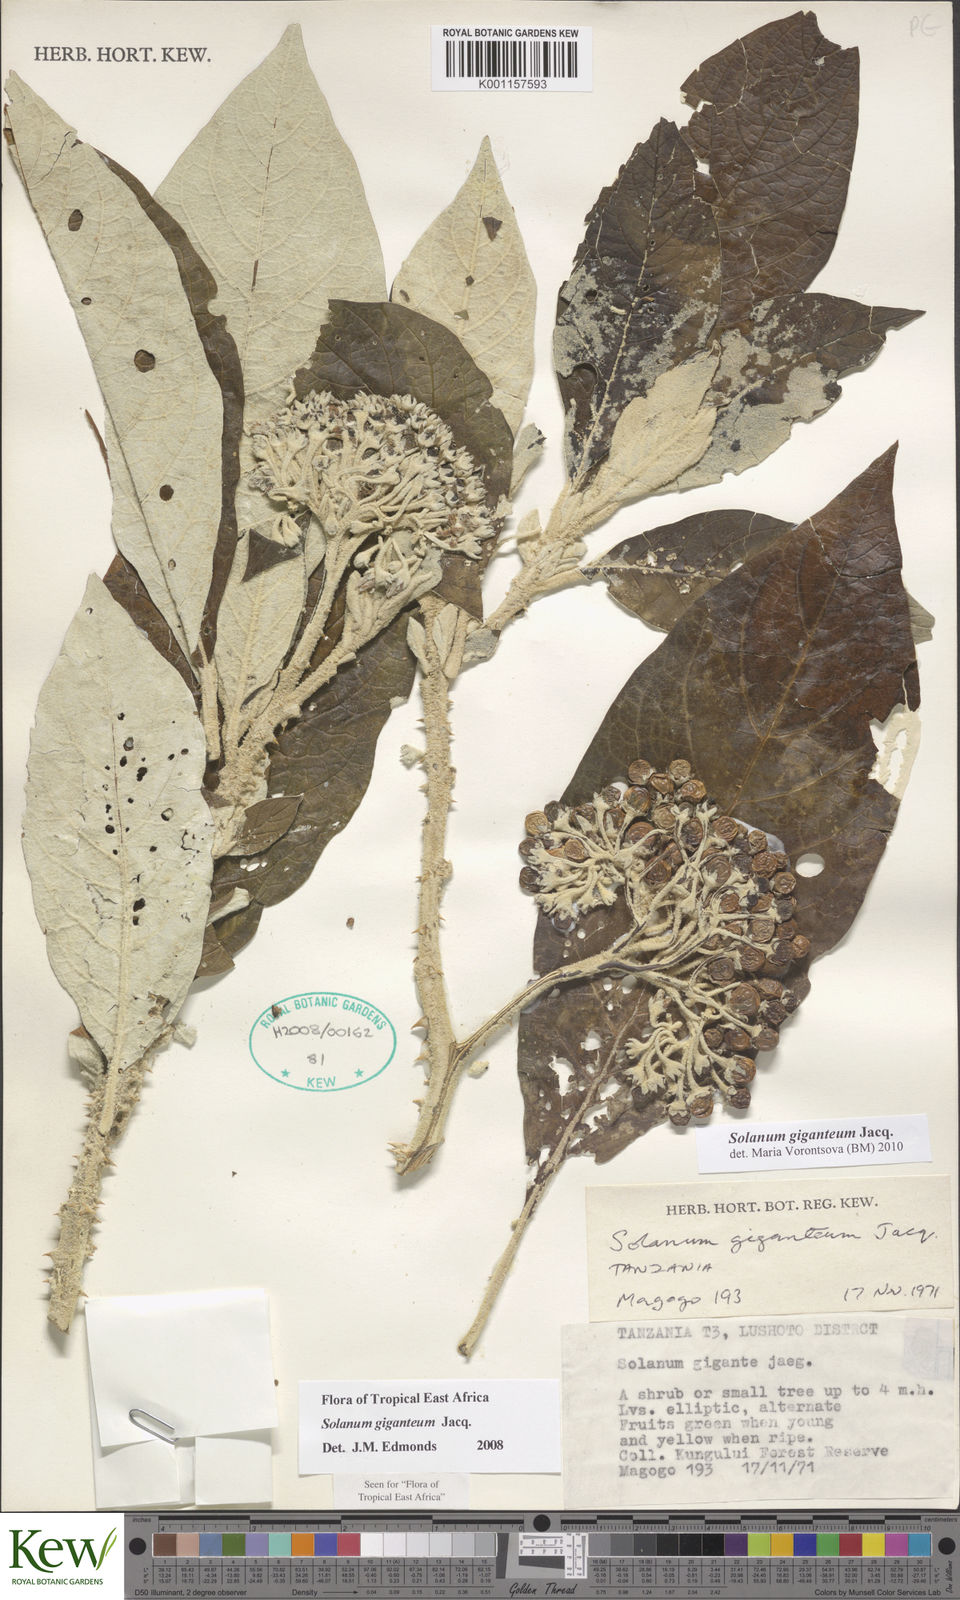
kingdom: Plantae
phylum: Tracheophyta
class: Magnoliopsida
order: Solanales
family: Solanaceae
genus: Solanum
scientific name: Solanum giganteum
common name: Healing-leaf-tree
